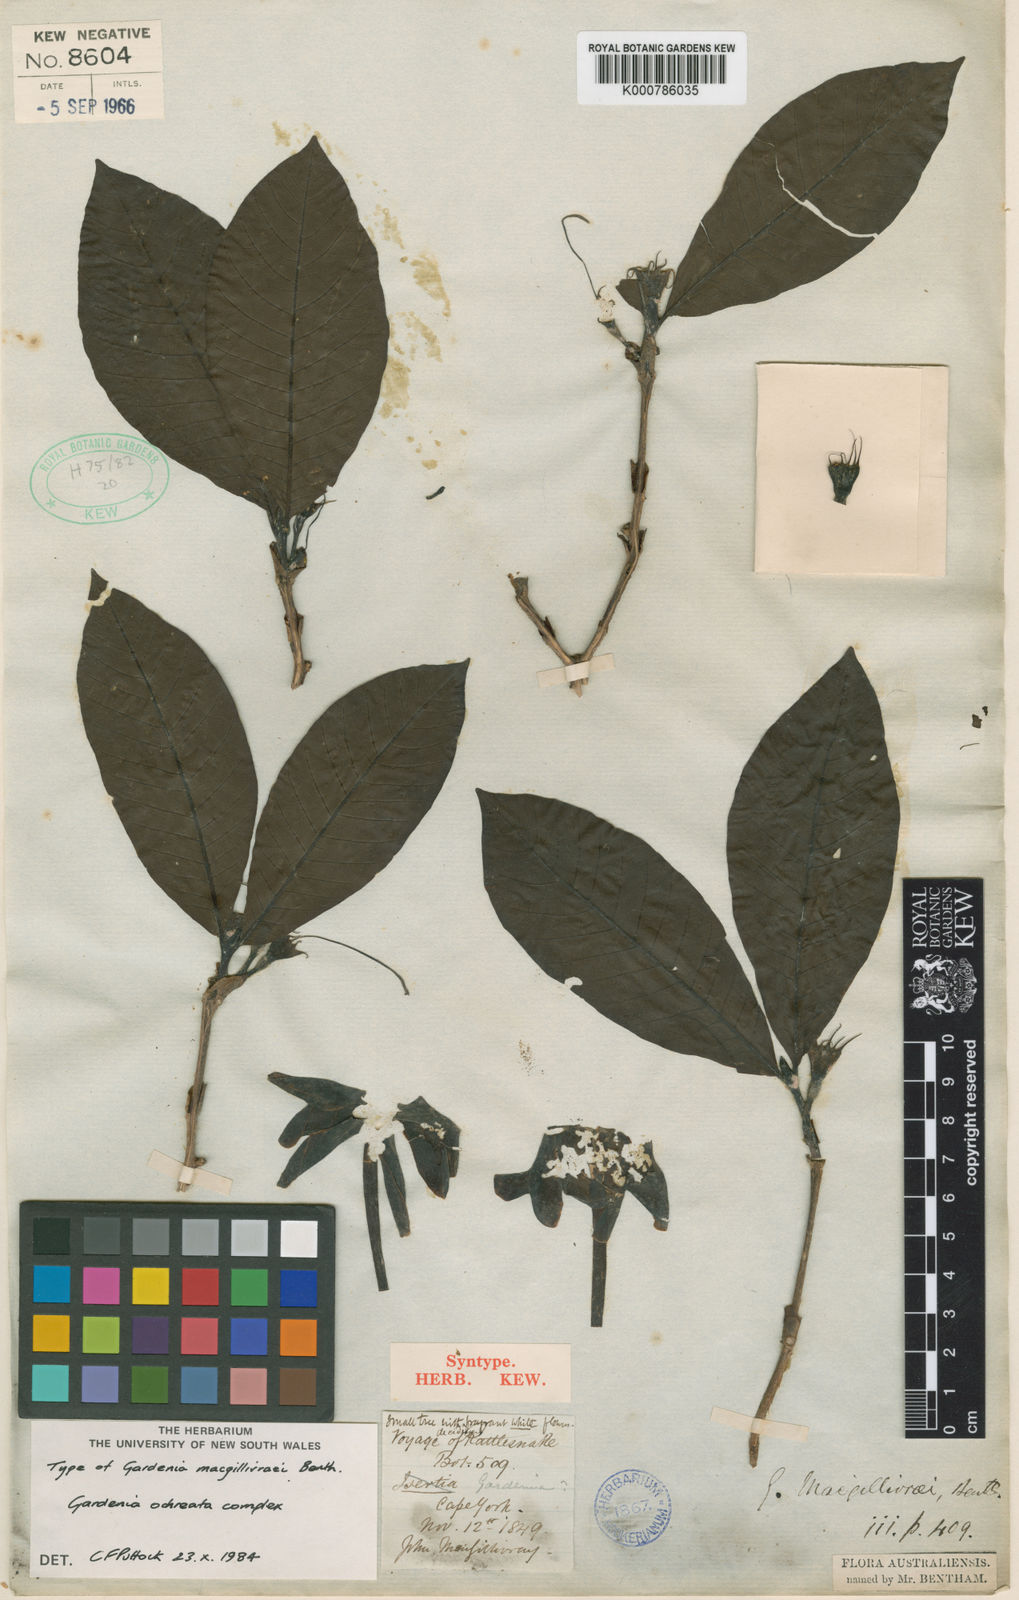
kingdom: Plantae
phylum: Tracheophyta
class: Magnoliopsida
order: Gentianales
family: Rubiaceae
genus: Larsenaikia
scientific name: Larsenaikia ochreata
